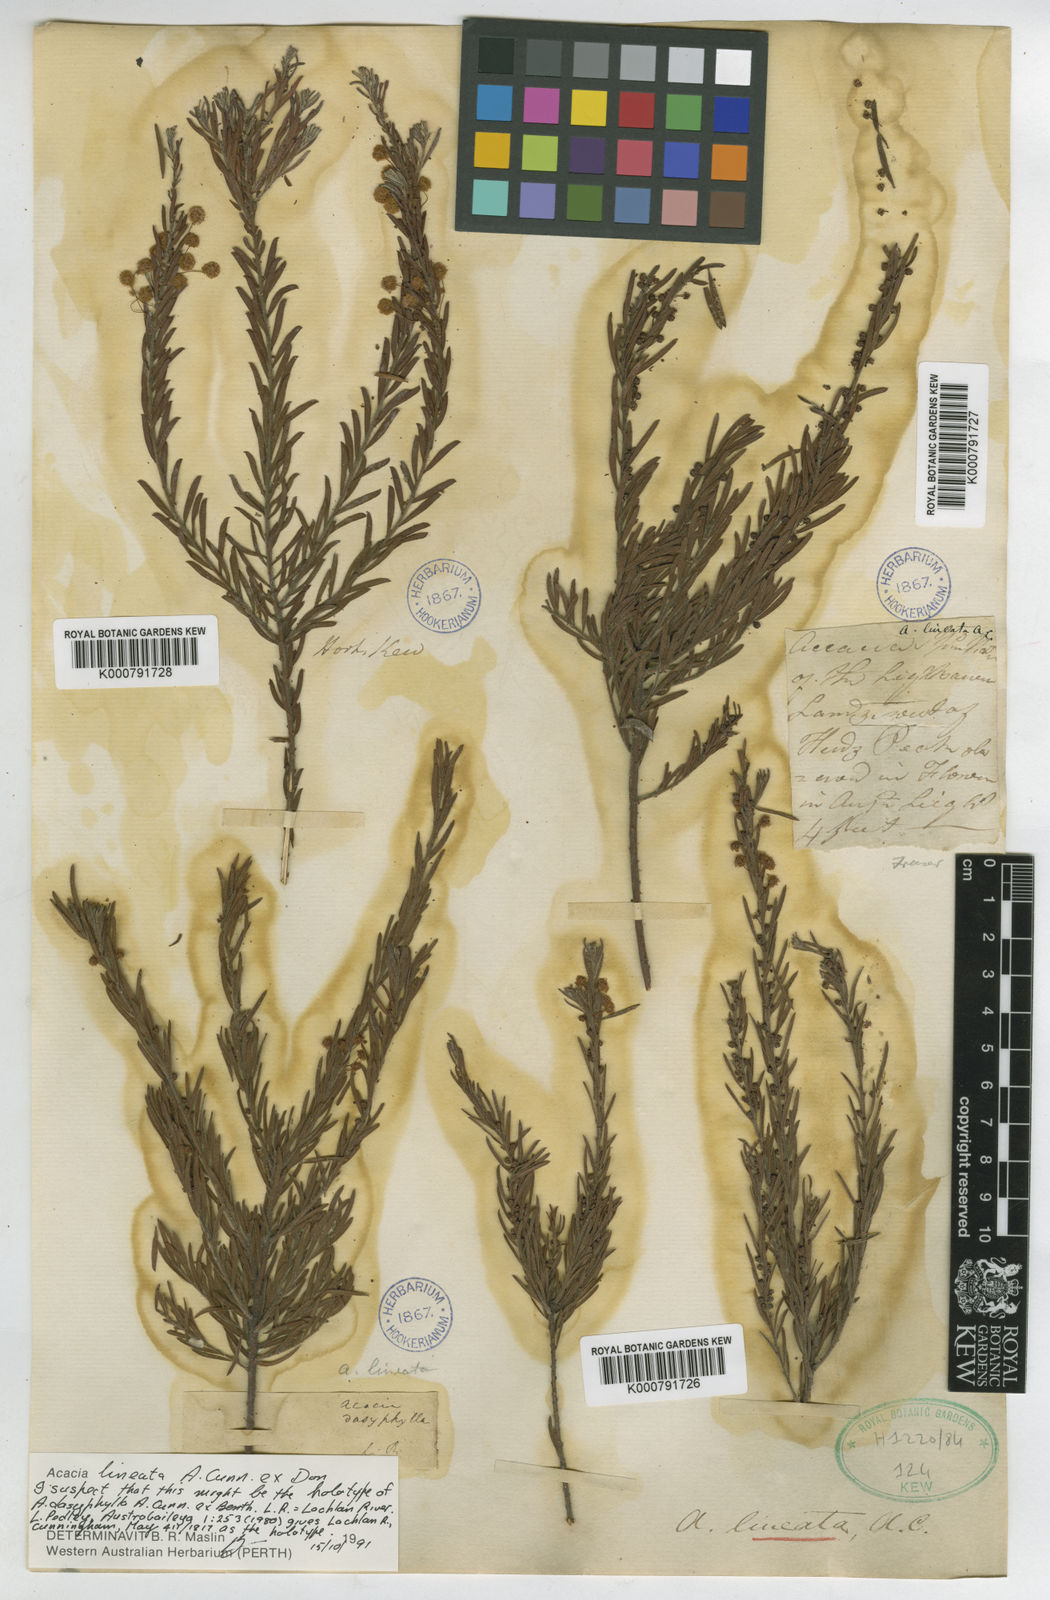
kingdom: Plantae
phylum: Tracheophyta
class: Magnoliopsida
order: Fabales
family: Fabaceae
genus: Acacia
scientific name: Acacia lineata
